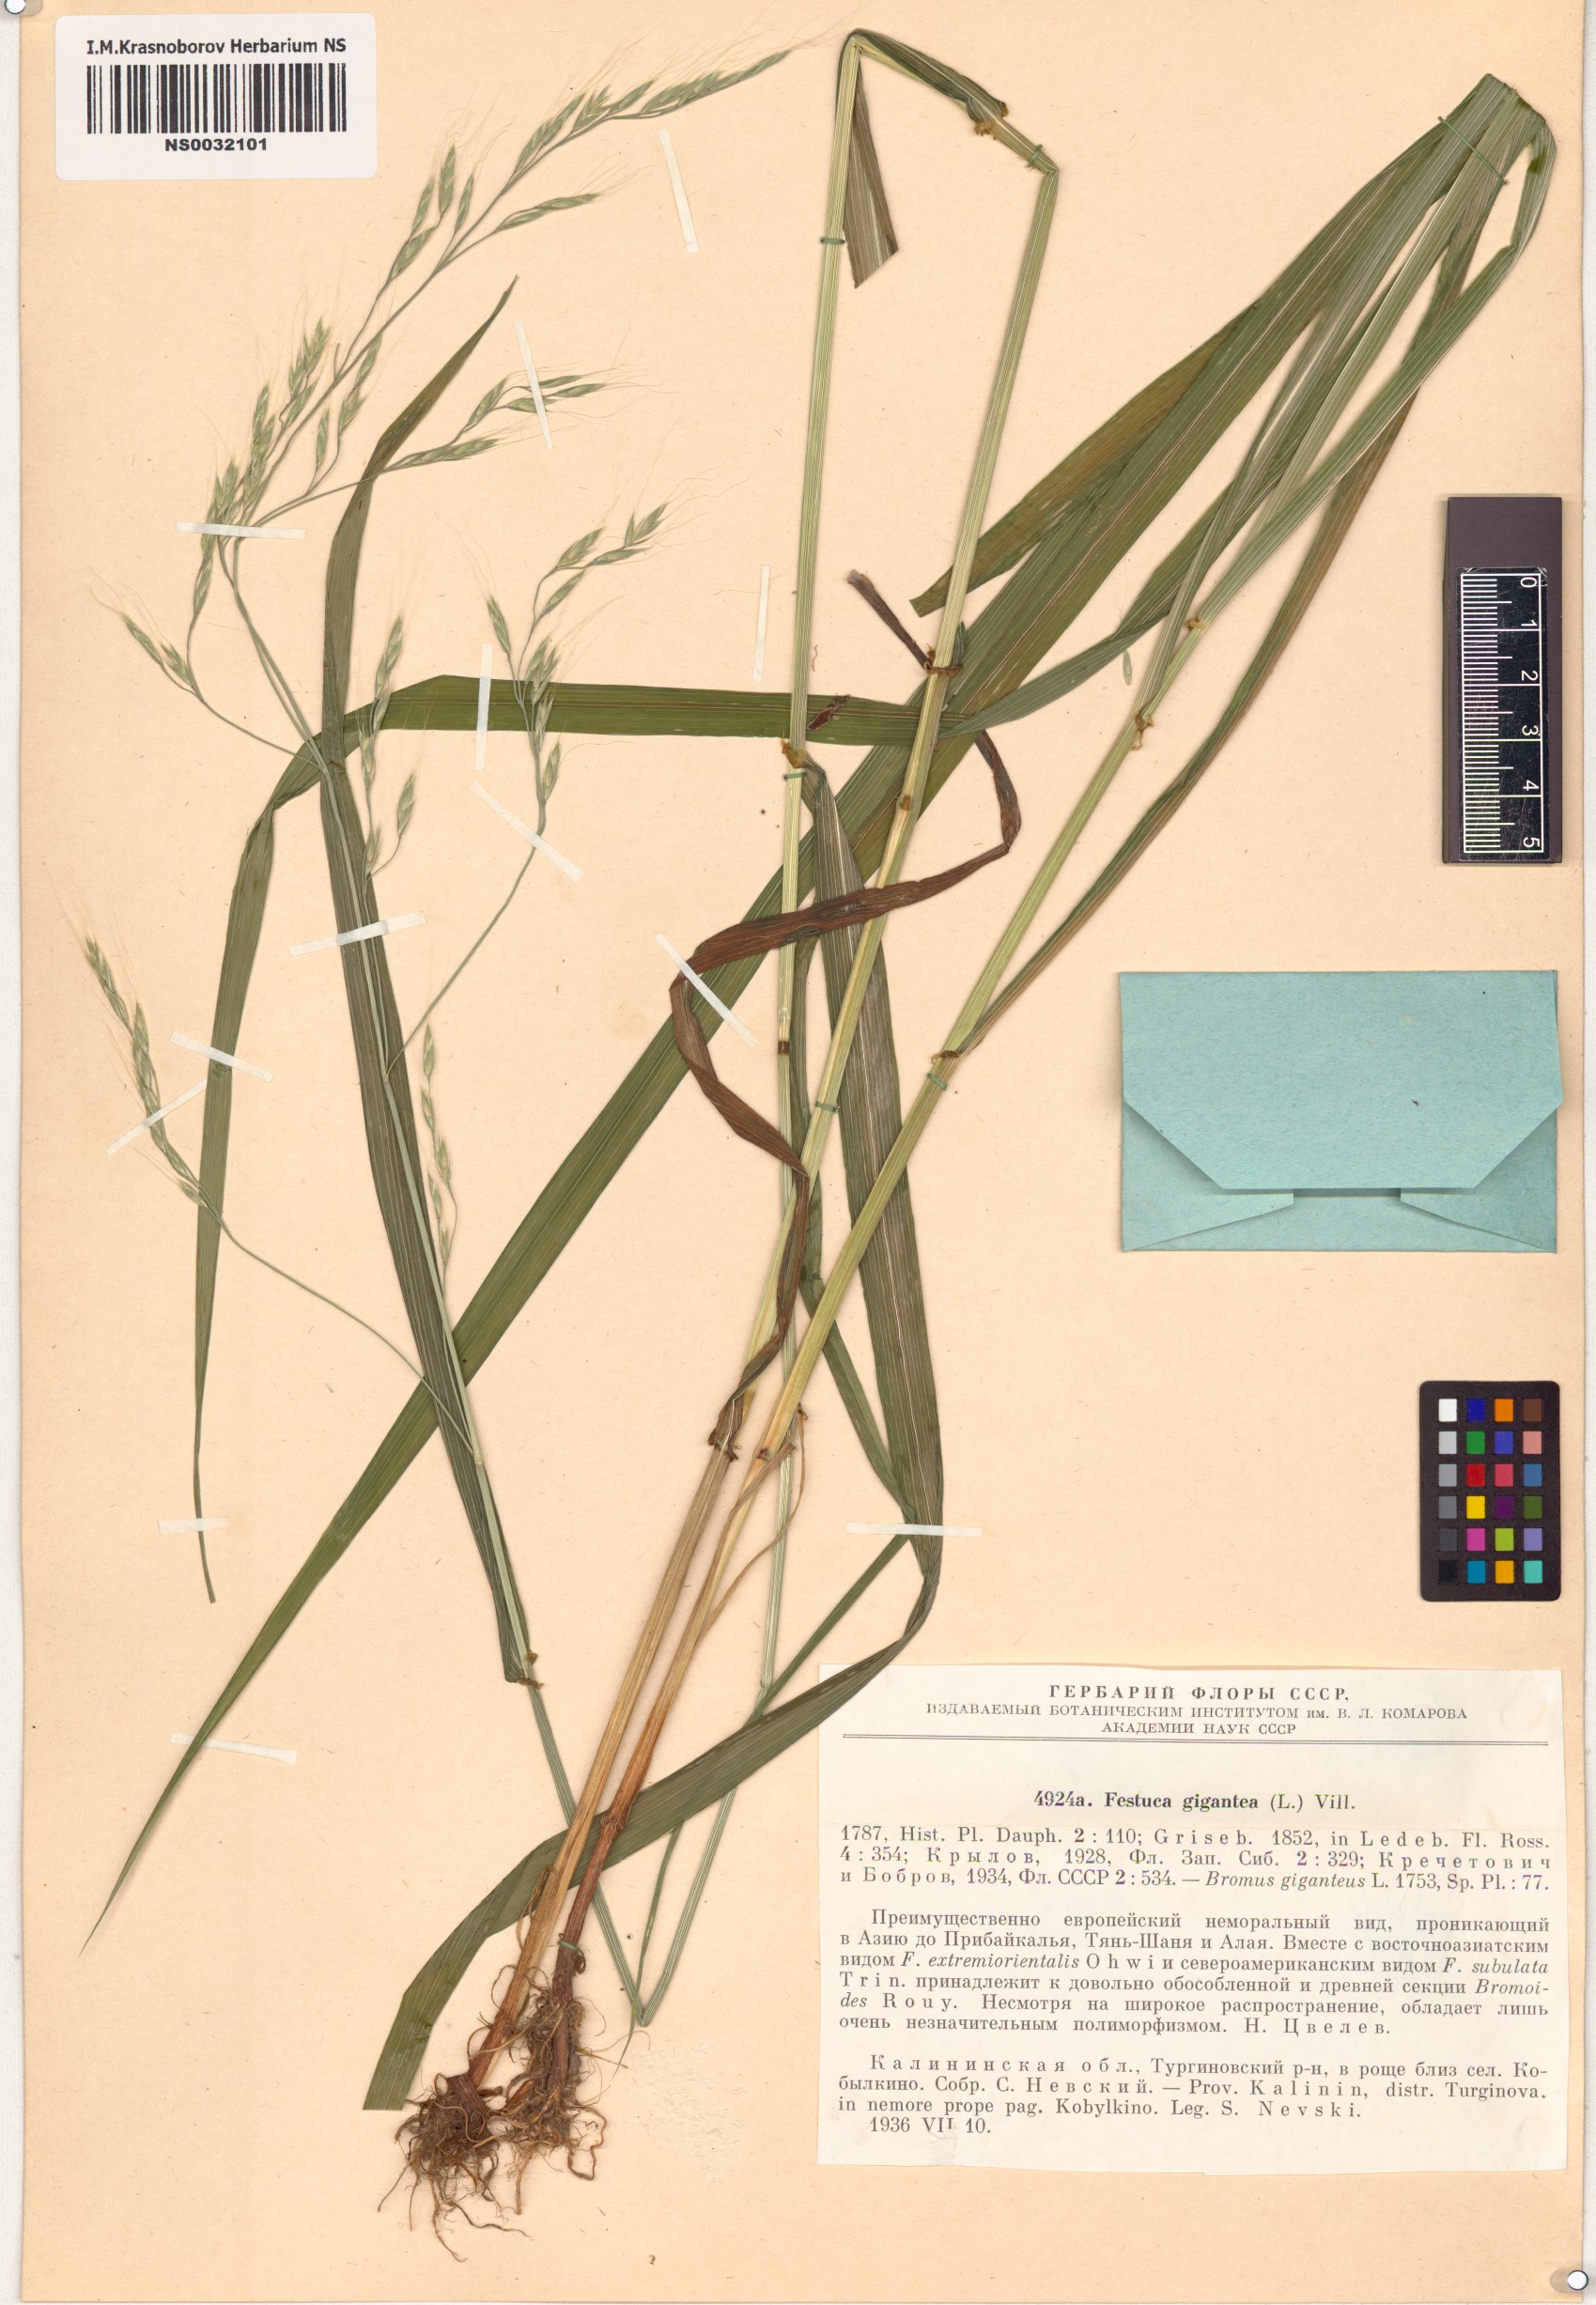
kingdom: Plantae
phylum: Tracheophyta
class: Liliopsida
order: Poales
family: Poaceae
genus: Lolium
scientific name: Lolium giganteum
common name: Giant fescue
